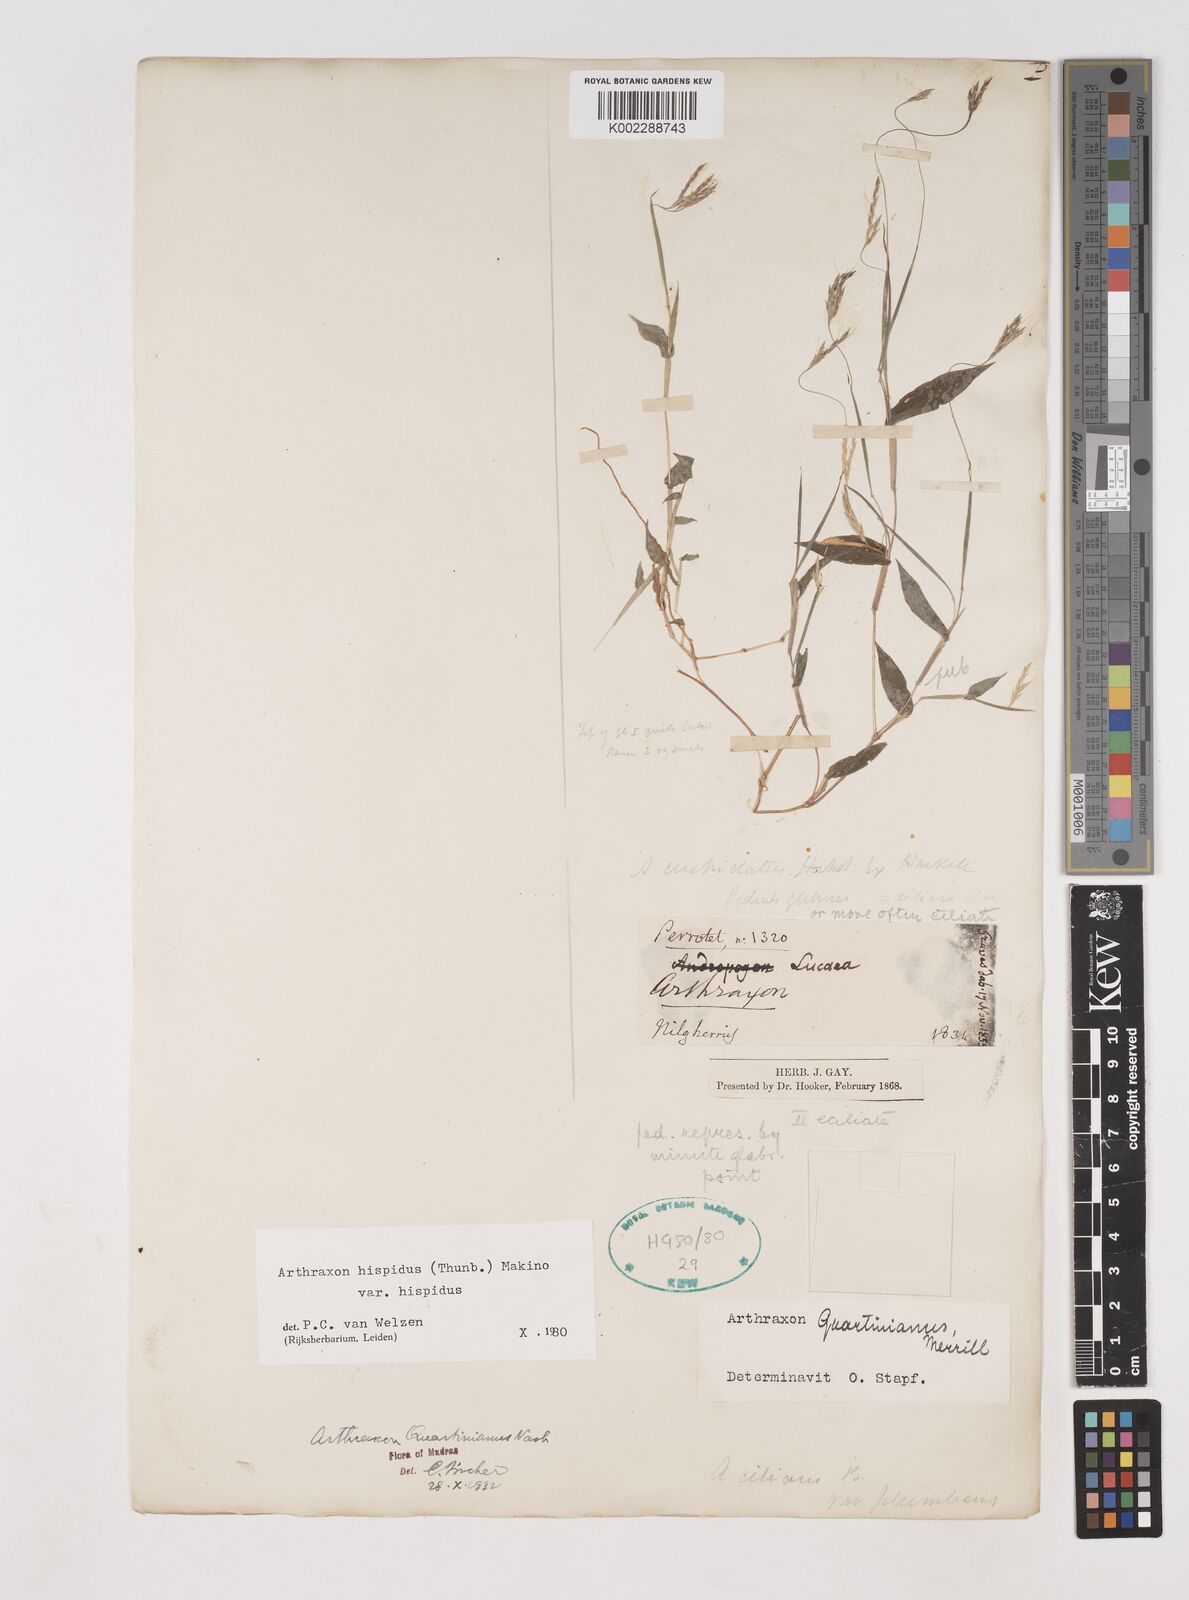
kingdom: Plantae
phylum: Tracheophyta
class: Liliopsida
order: Poales
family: Poaceae
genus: Arthraxon
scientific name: Arthraxon hispidus
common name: Small carpgrass
